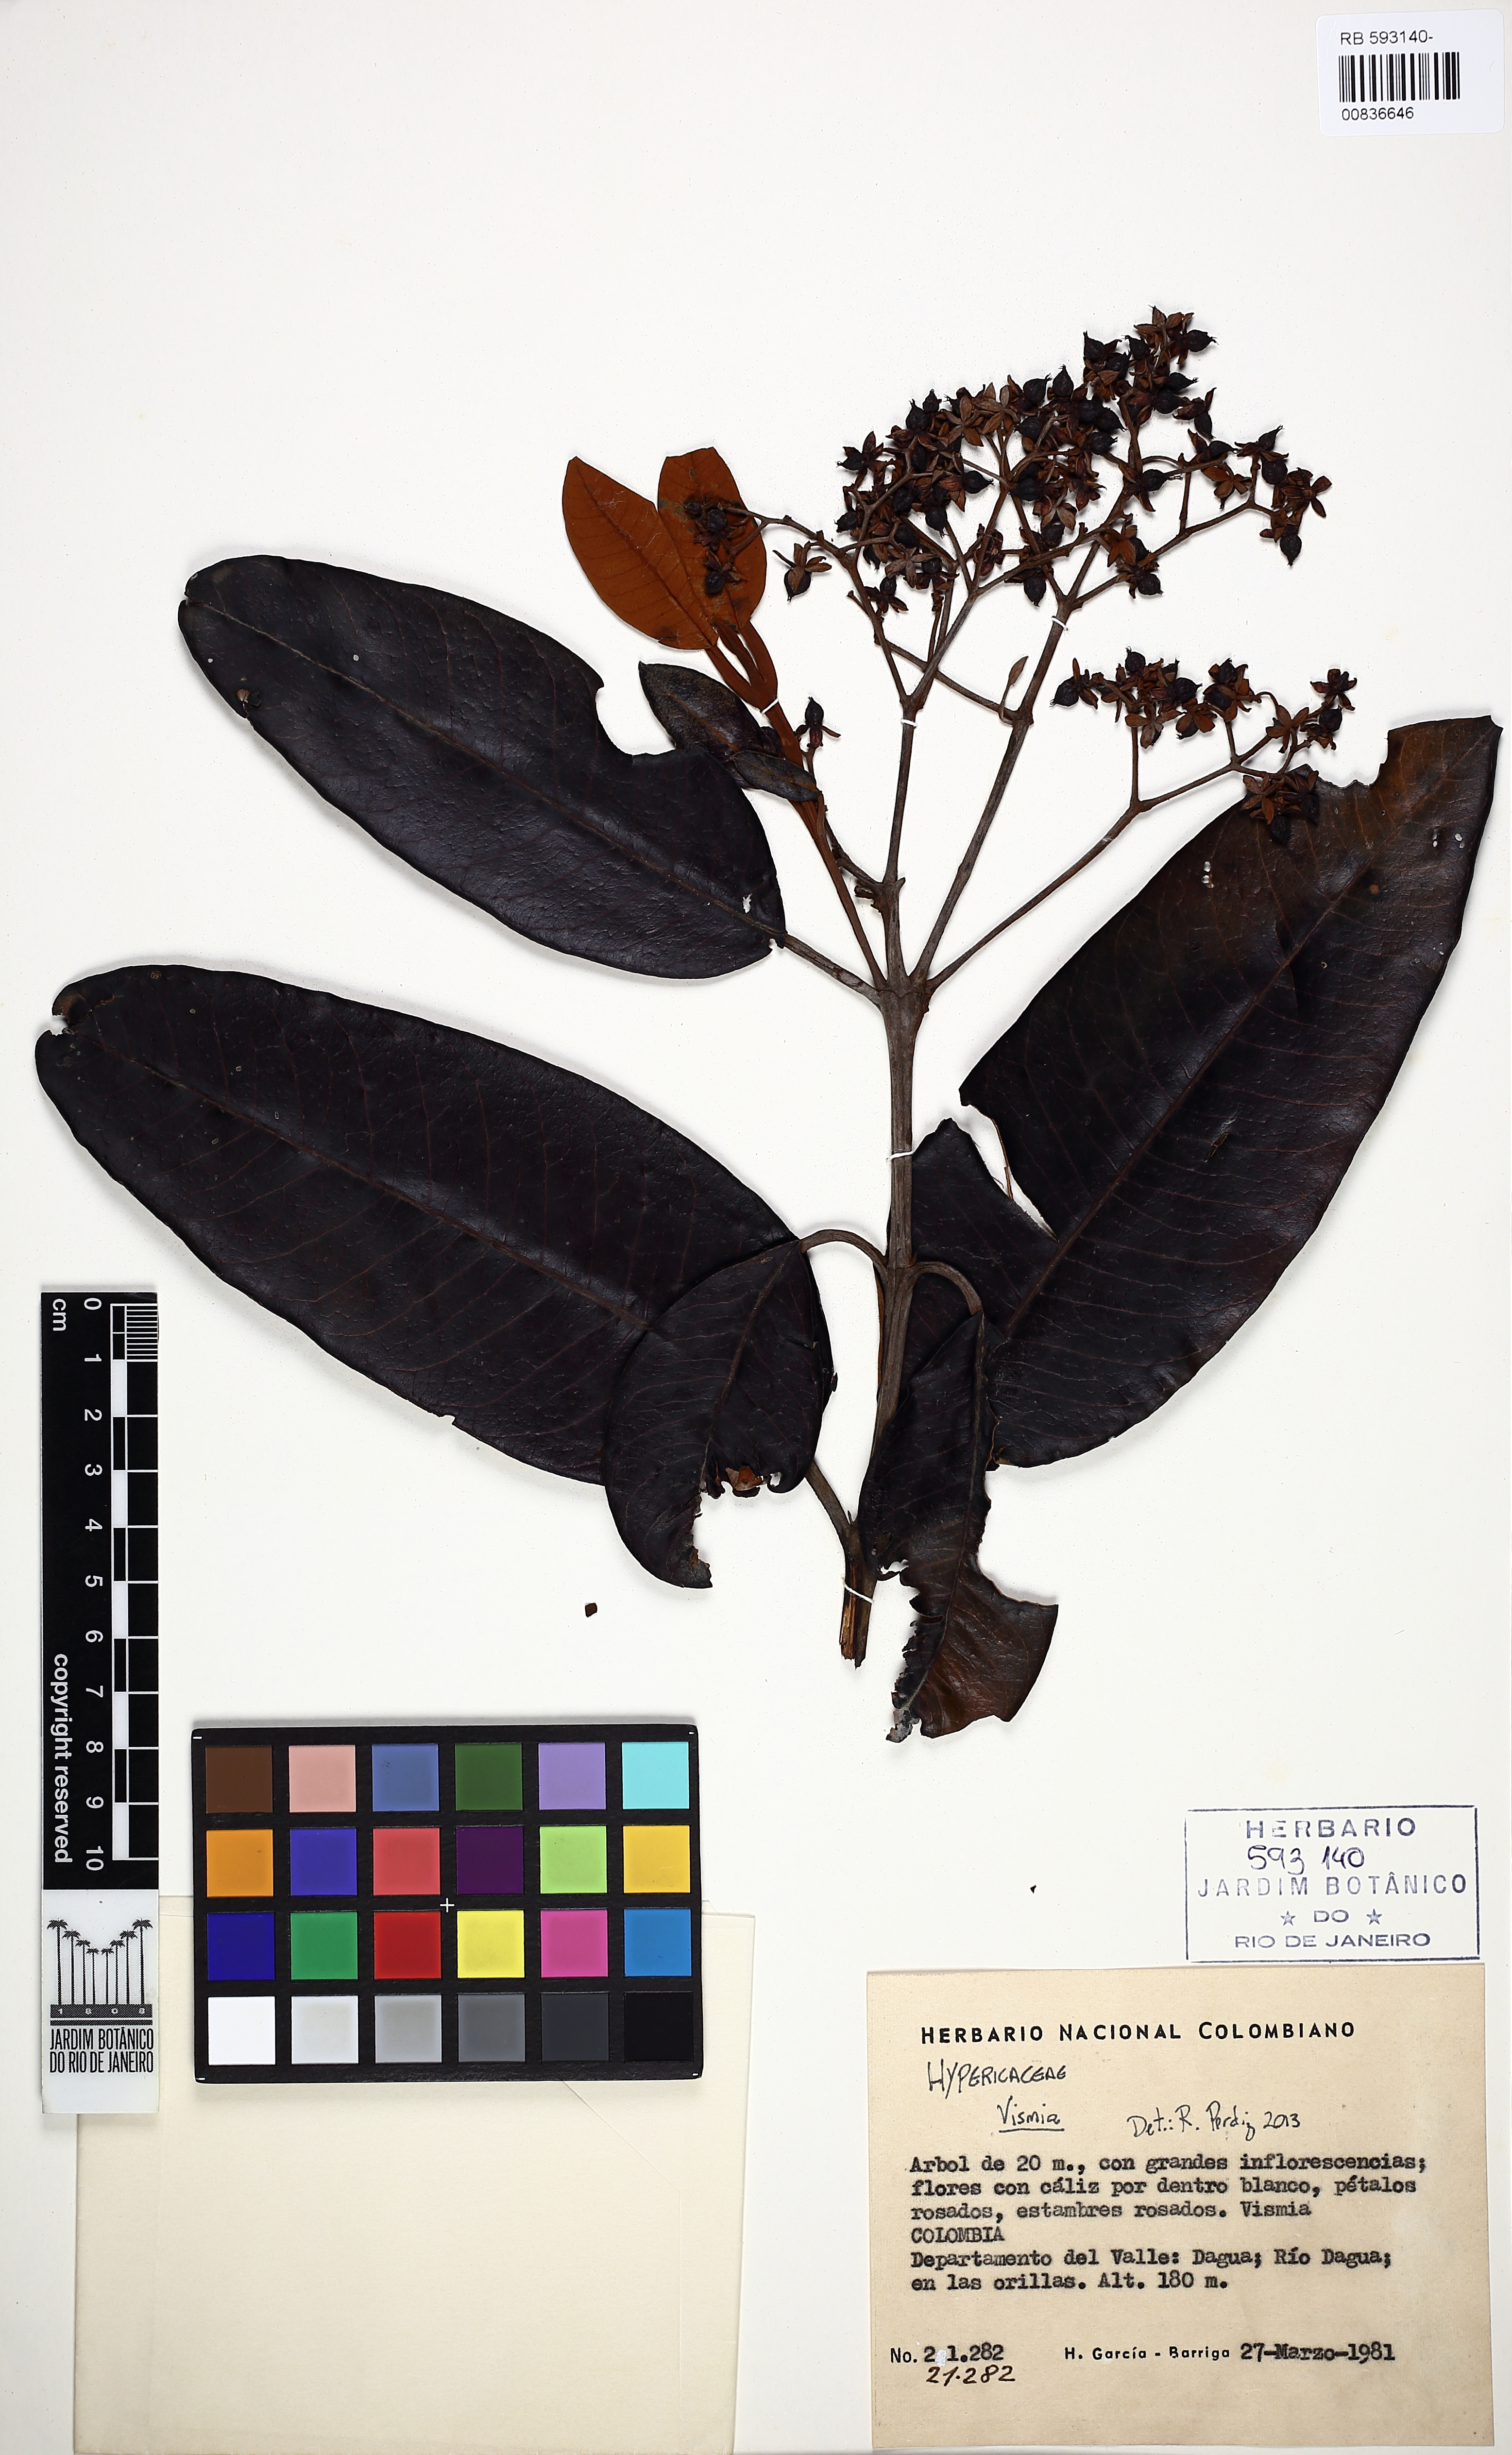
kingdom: Plantae
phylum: Tracheophyta
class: Magnoliopsida
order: Malpighiales
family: Hypericaceae
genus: Vismia
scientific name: Vismia
